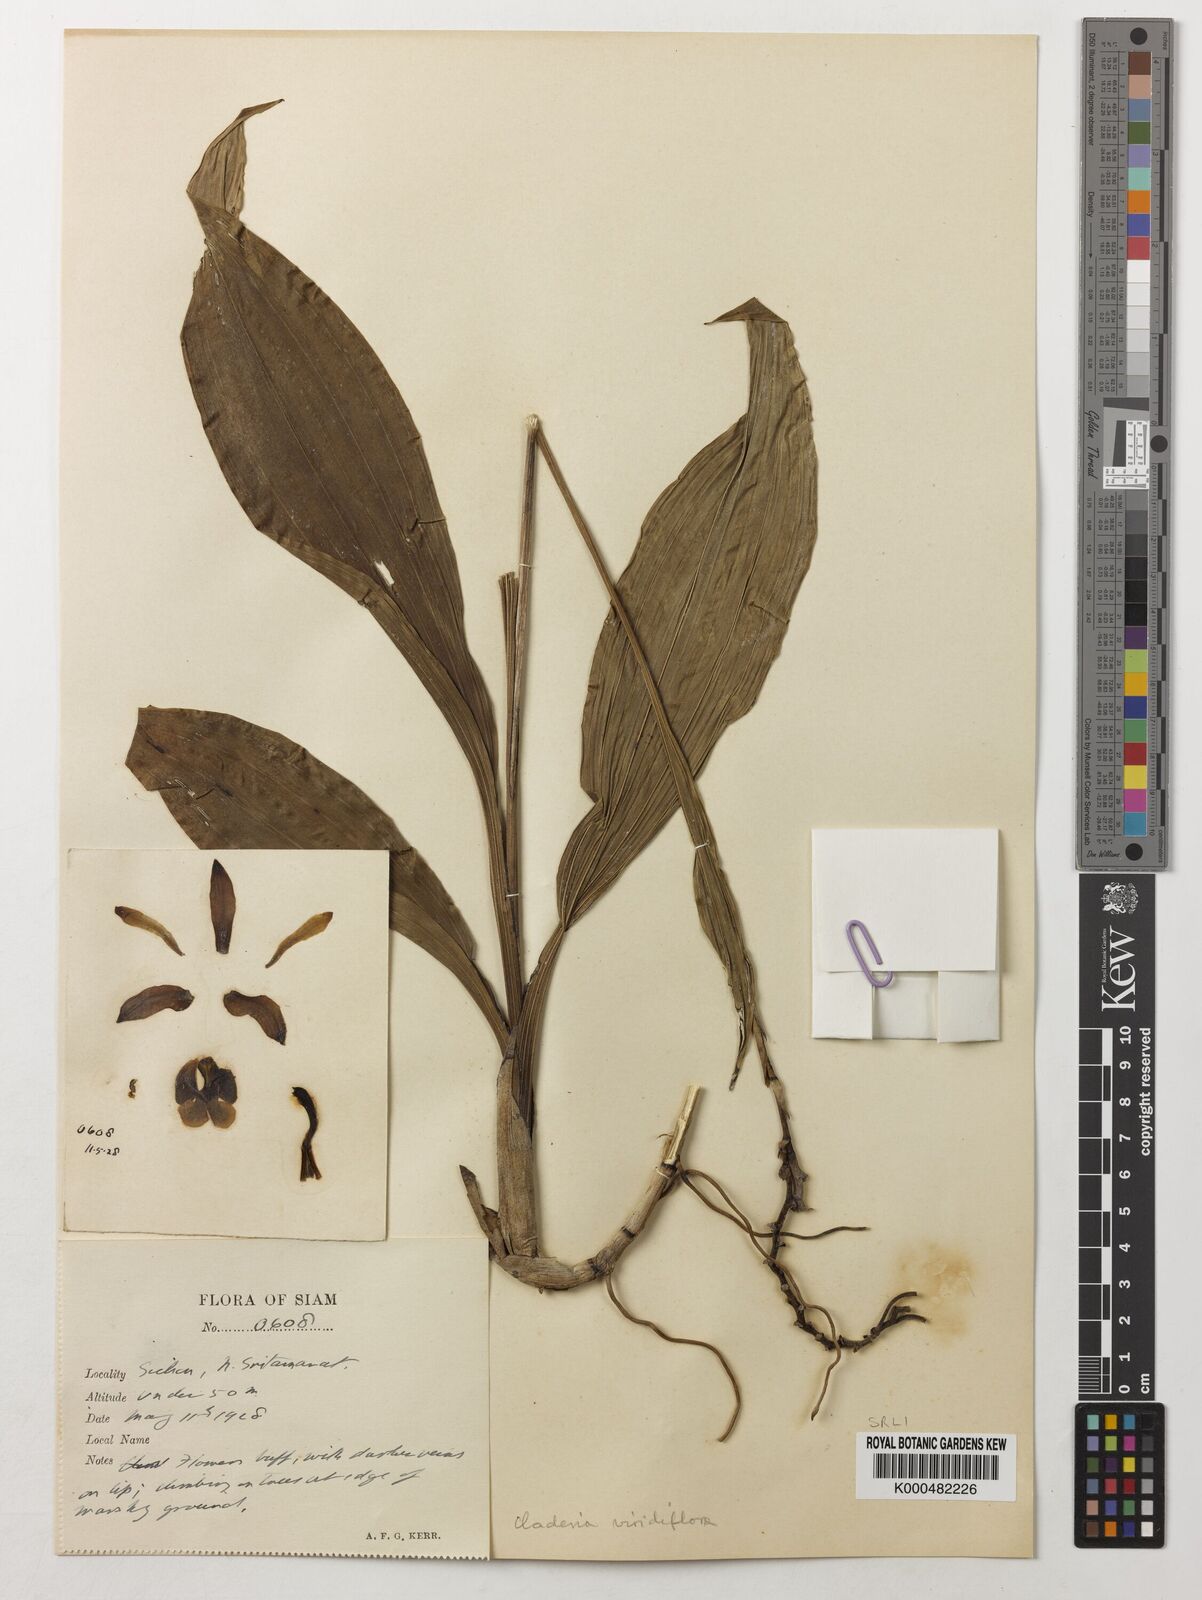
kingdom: Plantae
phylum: Tracheophyta
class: Liliopsida
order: Asparagales
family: Orchidaceae
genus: Claderia
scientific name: Claderia
